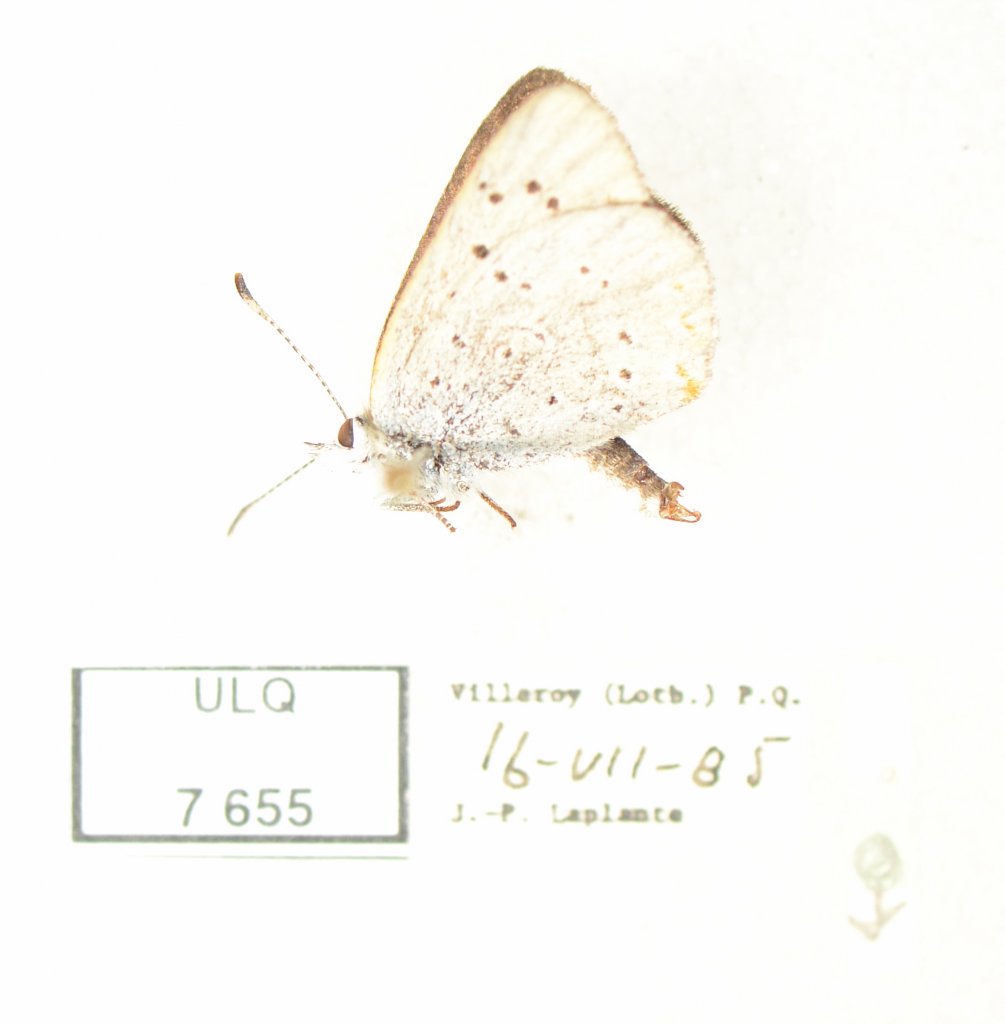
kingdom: Animalia
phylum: Arthropoda
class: Insecta
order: Lepidoptera
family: Sesiidae
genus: Sesia
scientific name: Sesia Lycaena epixanthe
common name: Bog Copper
